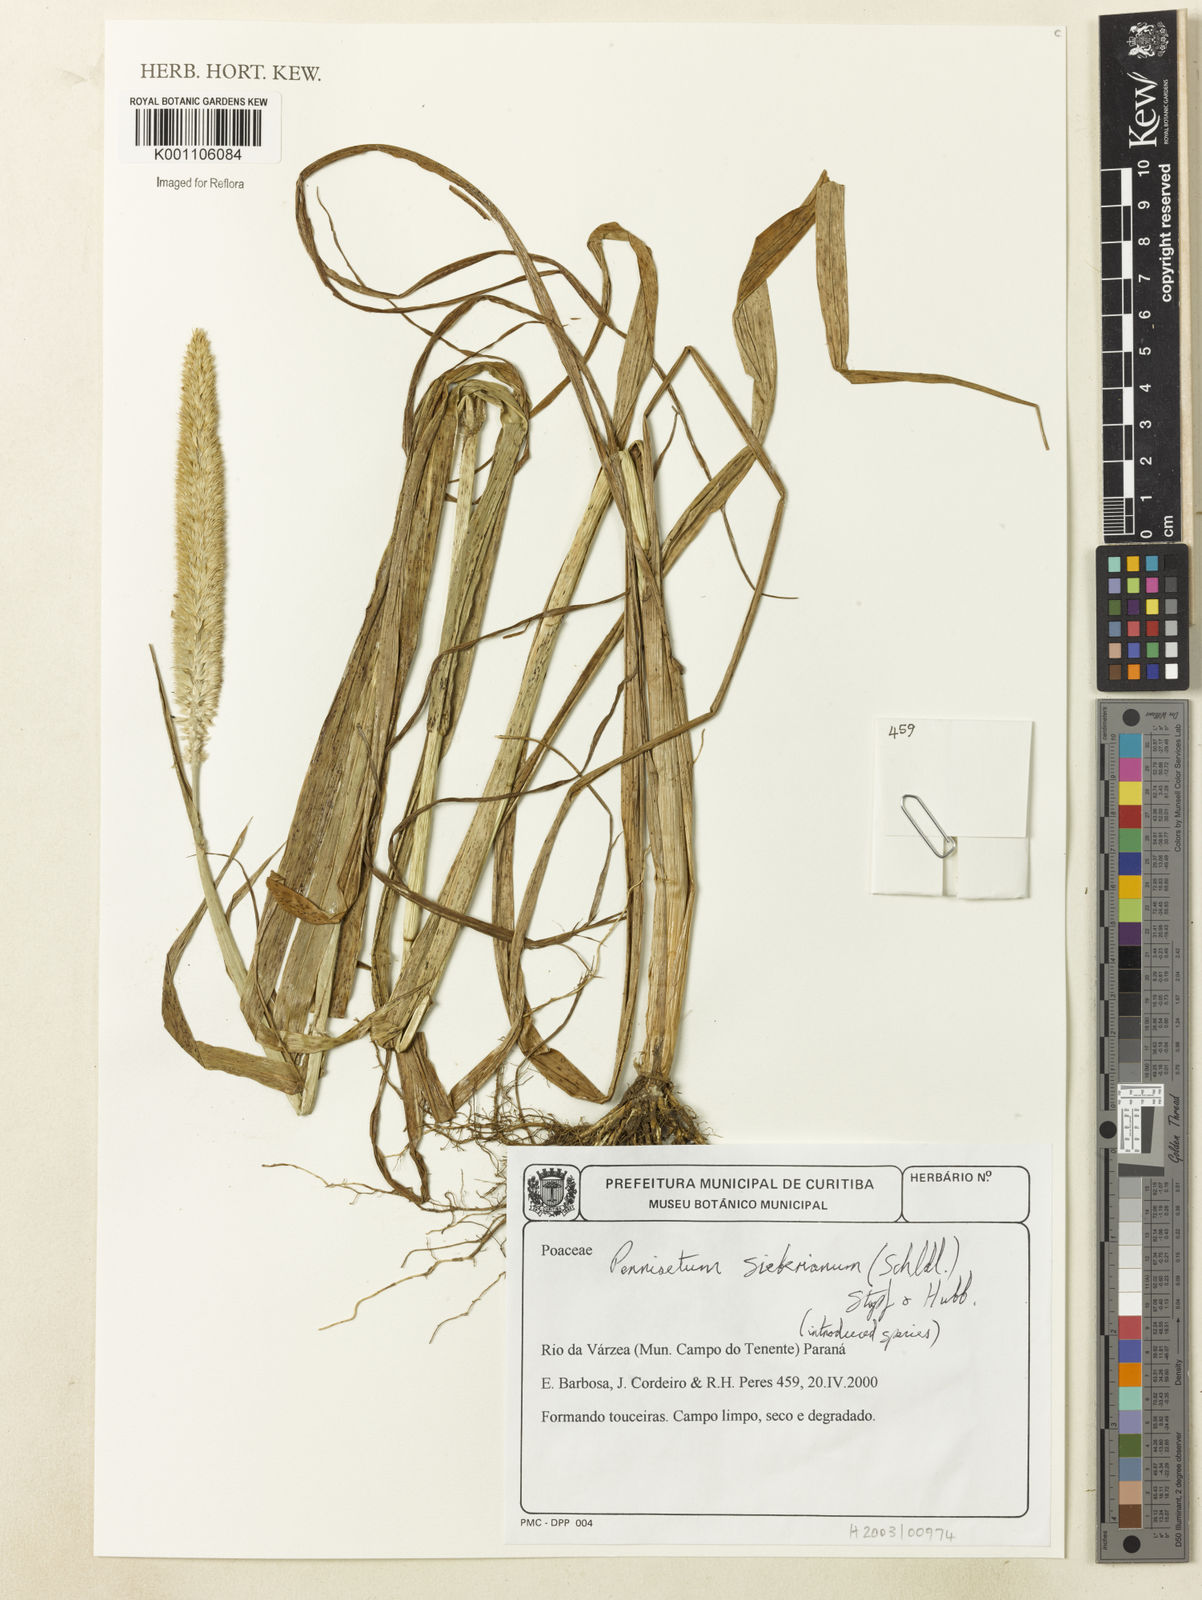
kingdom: Plantae
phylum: Tracheophyta
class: Liliopsida
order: Poales
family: Poaceae
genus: Cenchrus
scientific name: Cenchrus sieberianus
